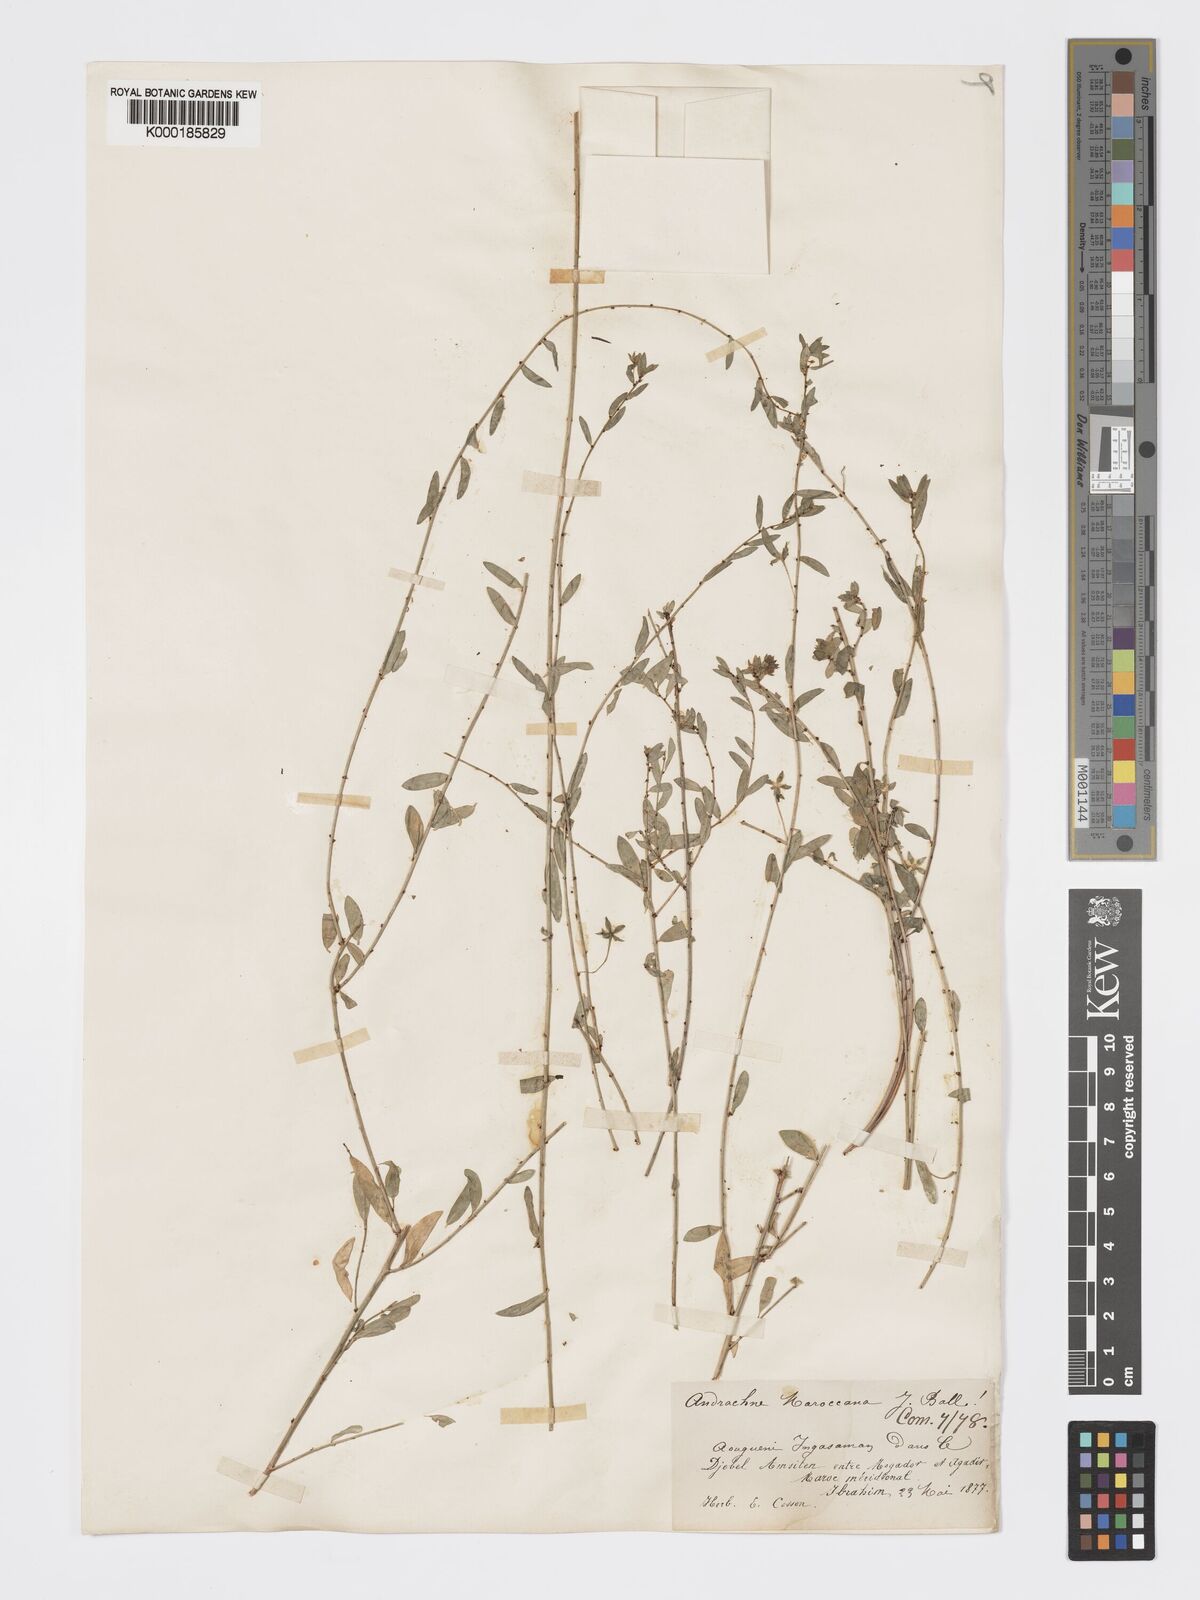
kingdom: Plantae
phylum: Tracheophyta
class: Magnoliopsida
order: Malpighiales
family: Phyllanthaceae
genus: Andrachne
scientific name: Andrachne maroccana
